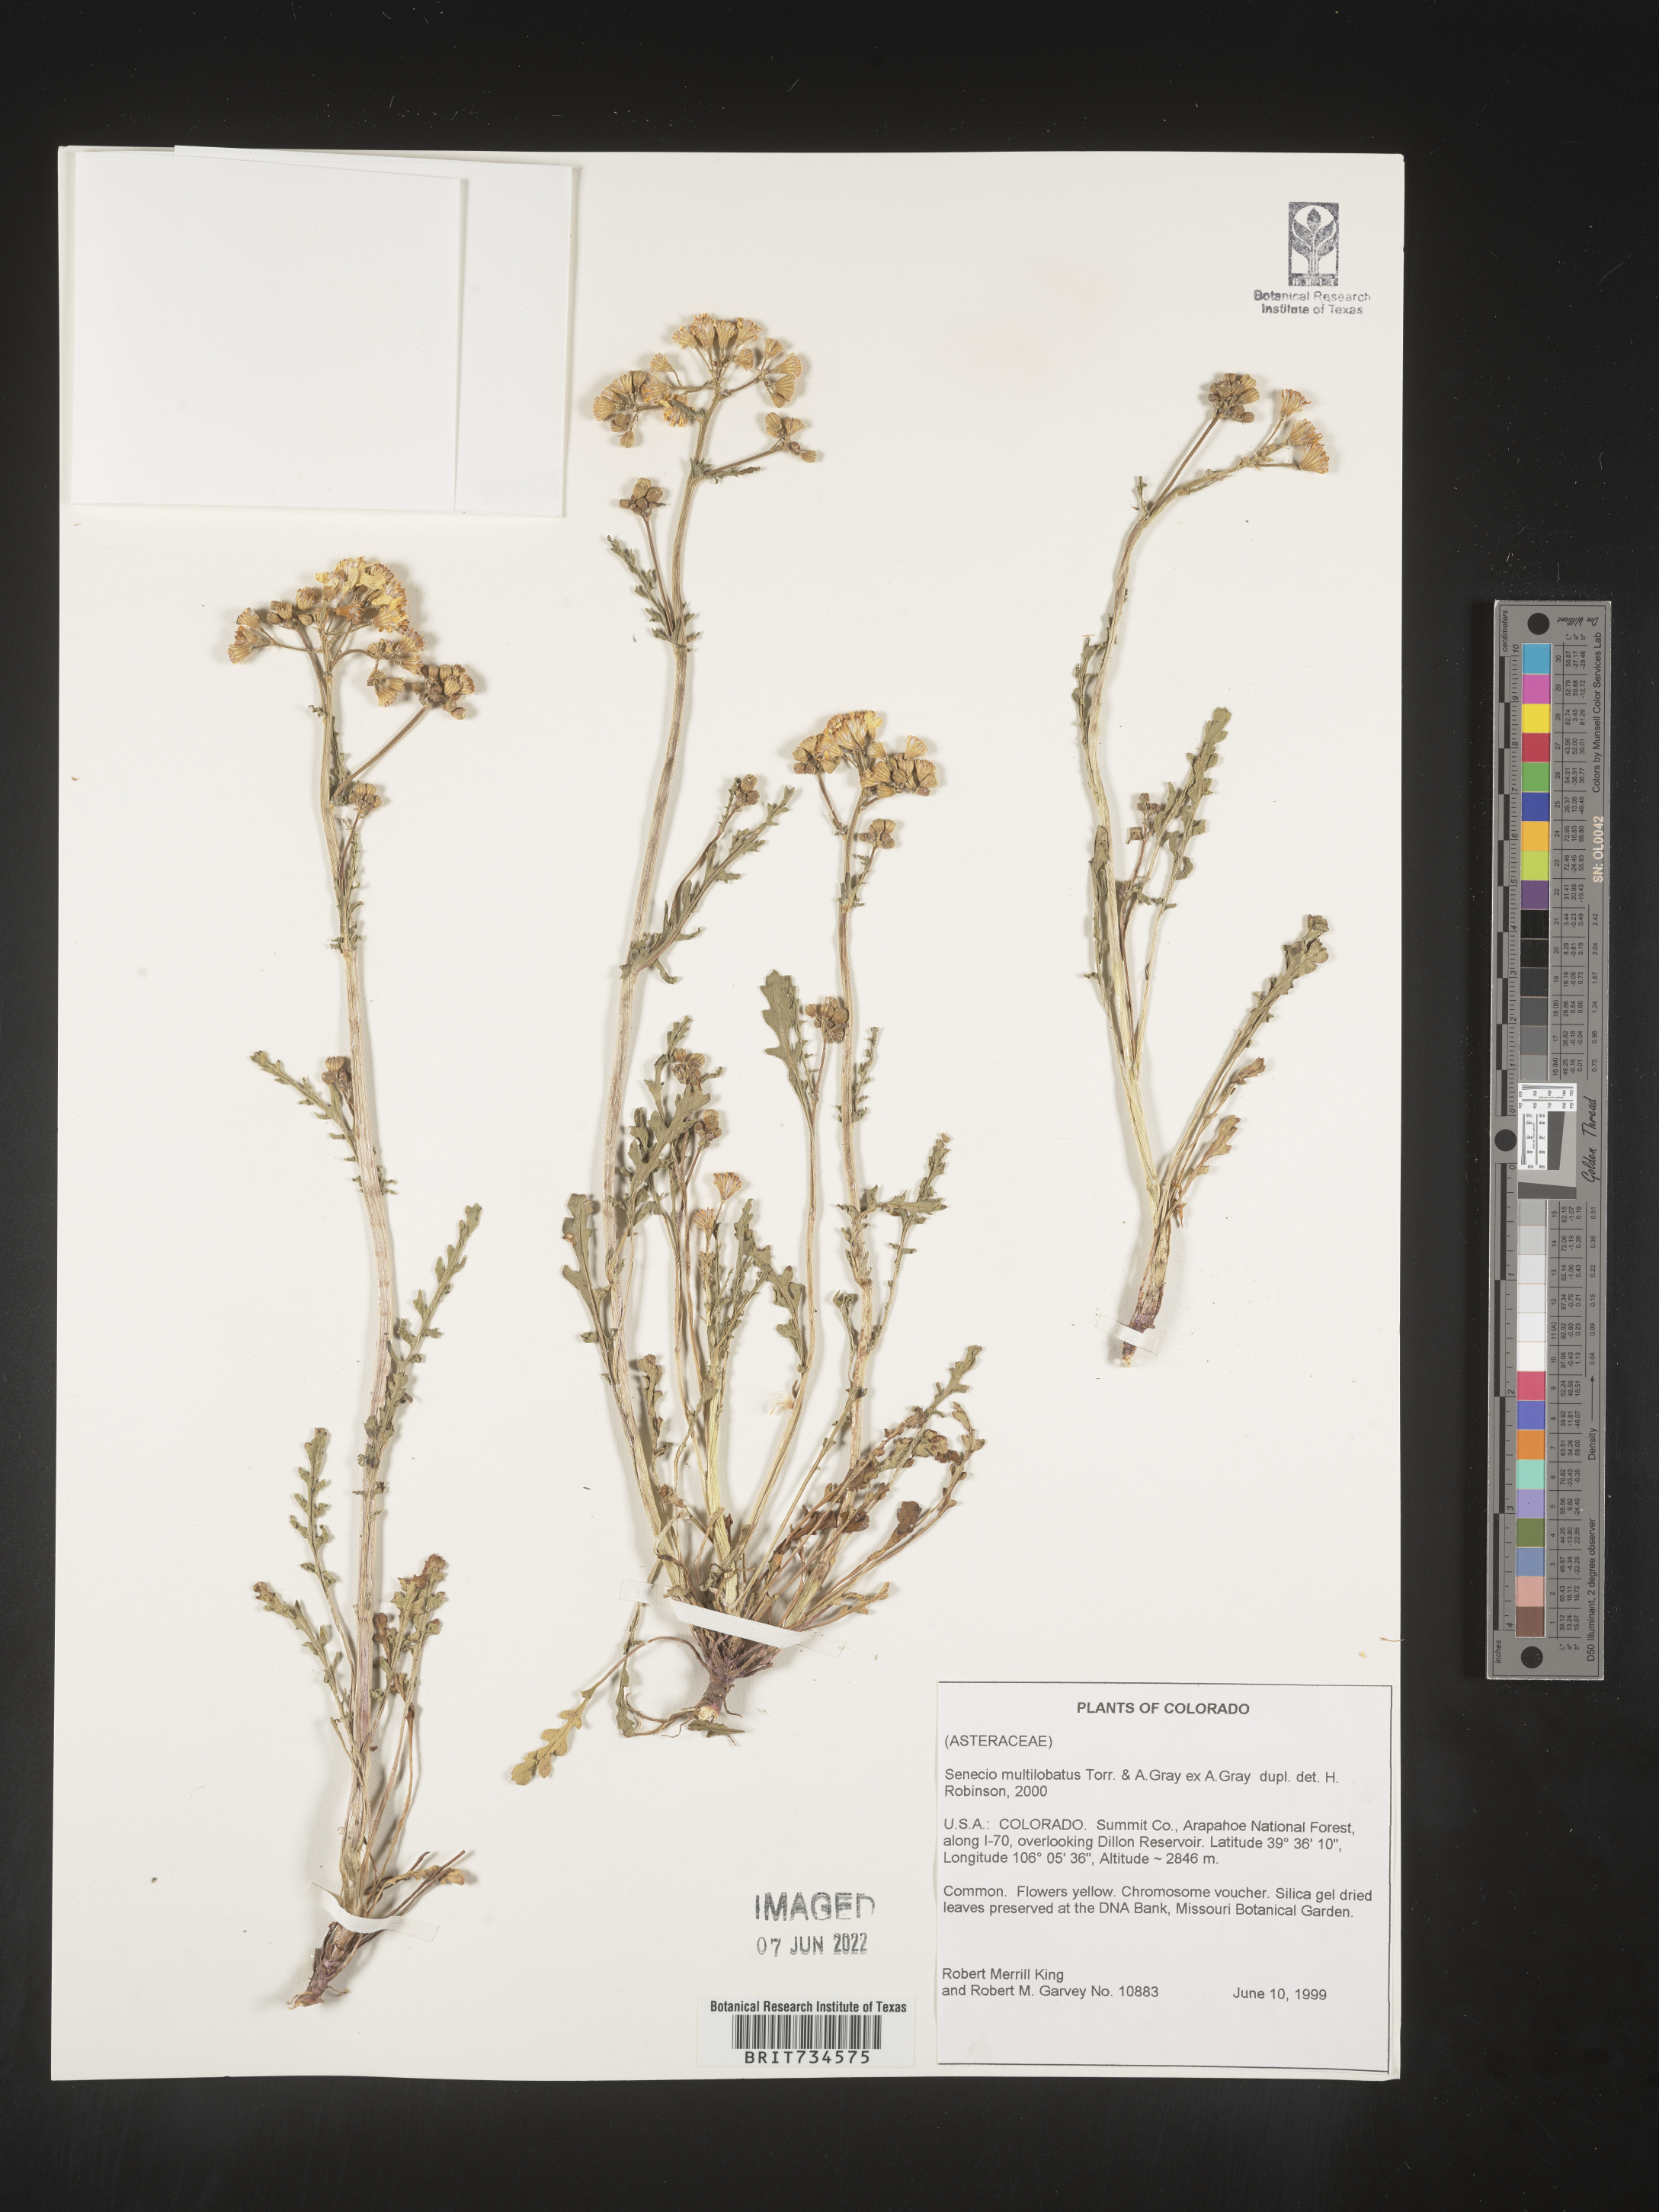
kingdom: Plantae
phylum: Tracheophyta
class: Magnoliopsida
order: Asterales
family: Asteraceae
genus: Packera
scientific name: Packera multilobata
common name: Lobe-leaf groundsel
